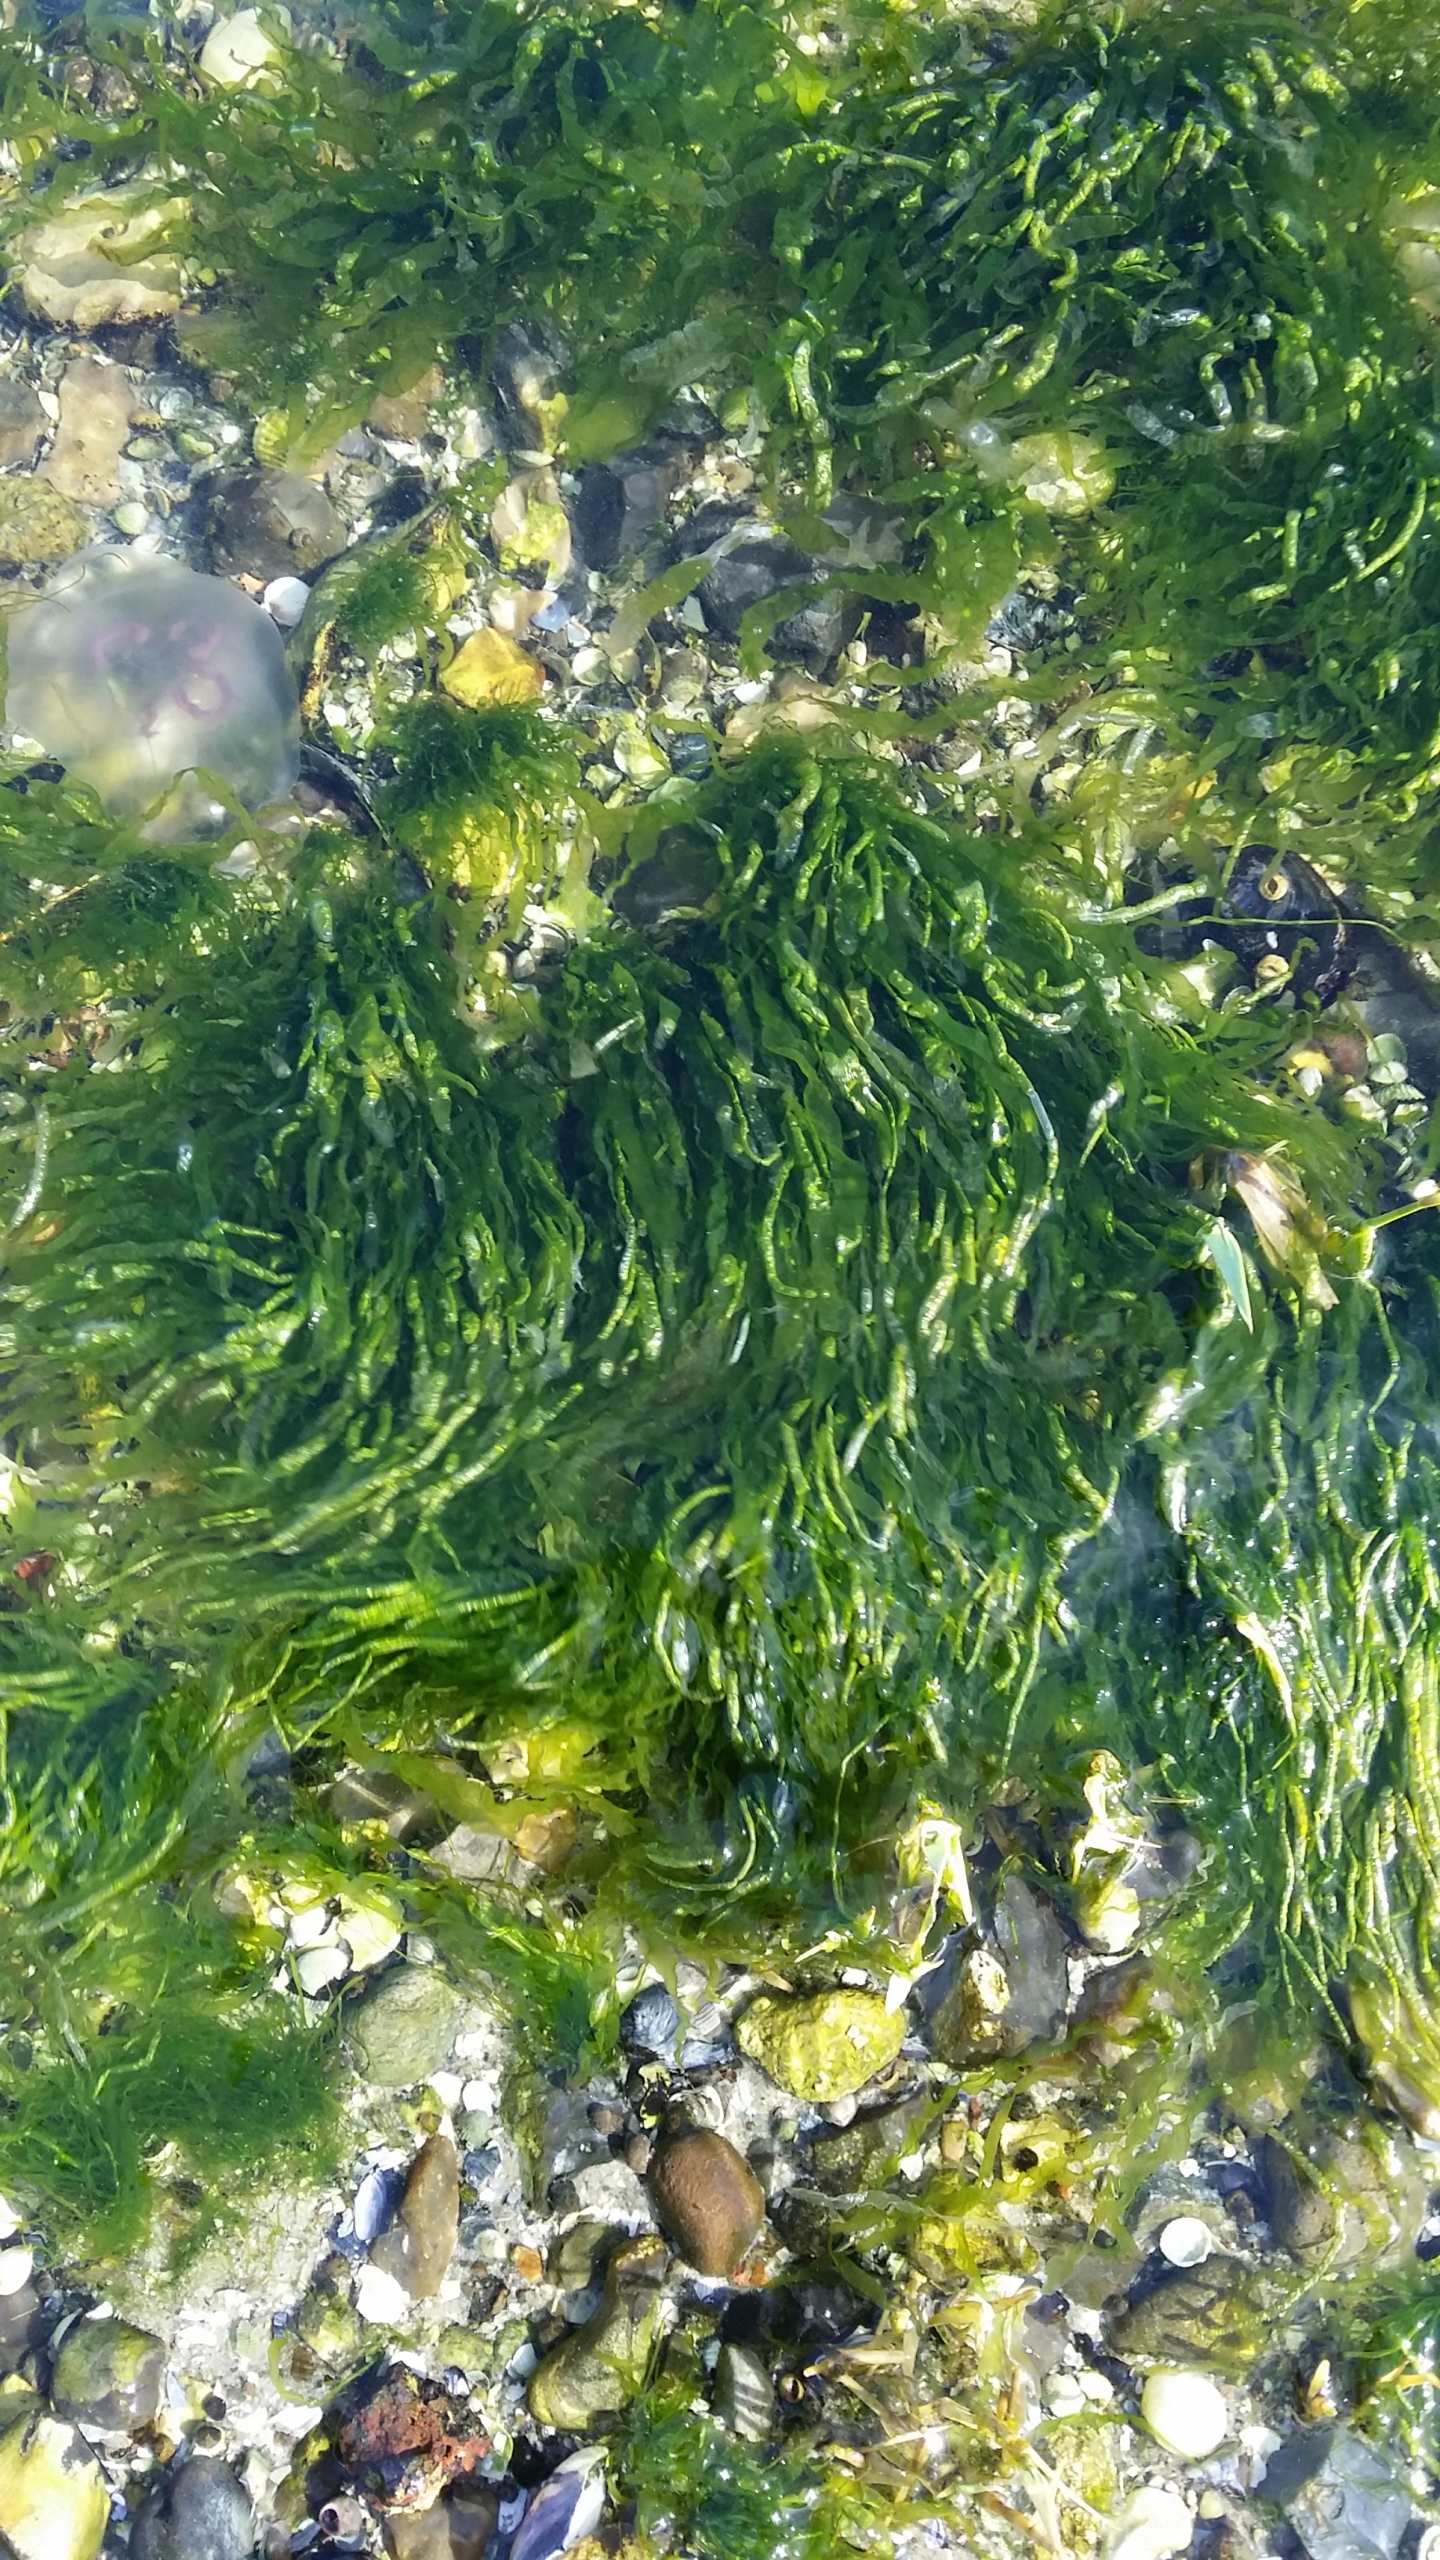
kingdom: Plantae
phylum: Chlorophyta
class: Ulvophyceae
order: Ulvales
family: Ulvaceae
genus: Ulva
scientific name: Ulva intestinalis
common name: Tarm-rørhinde
